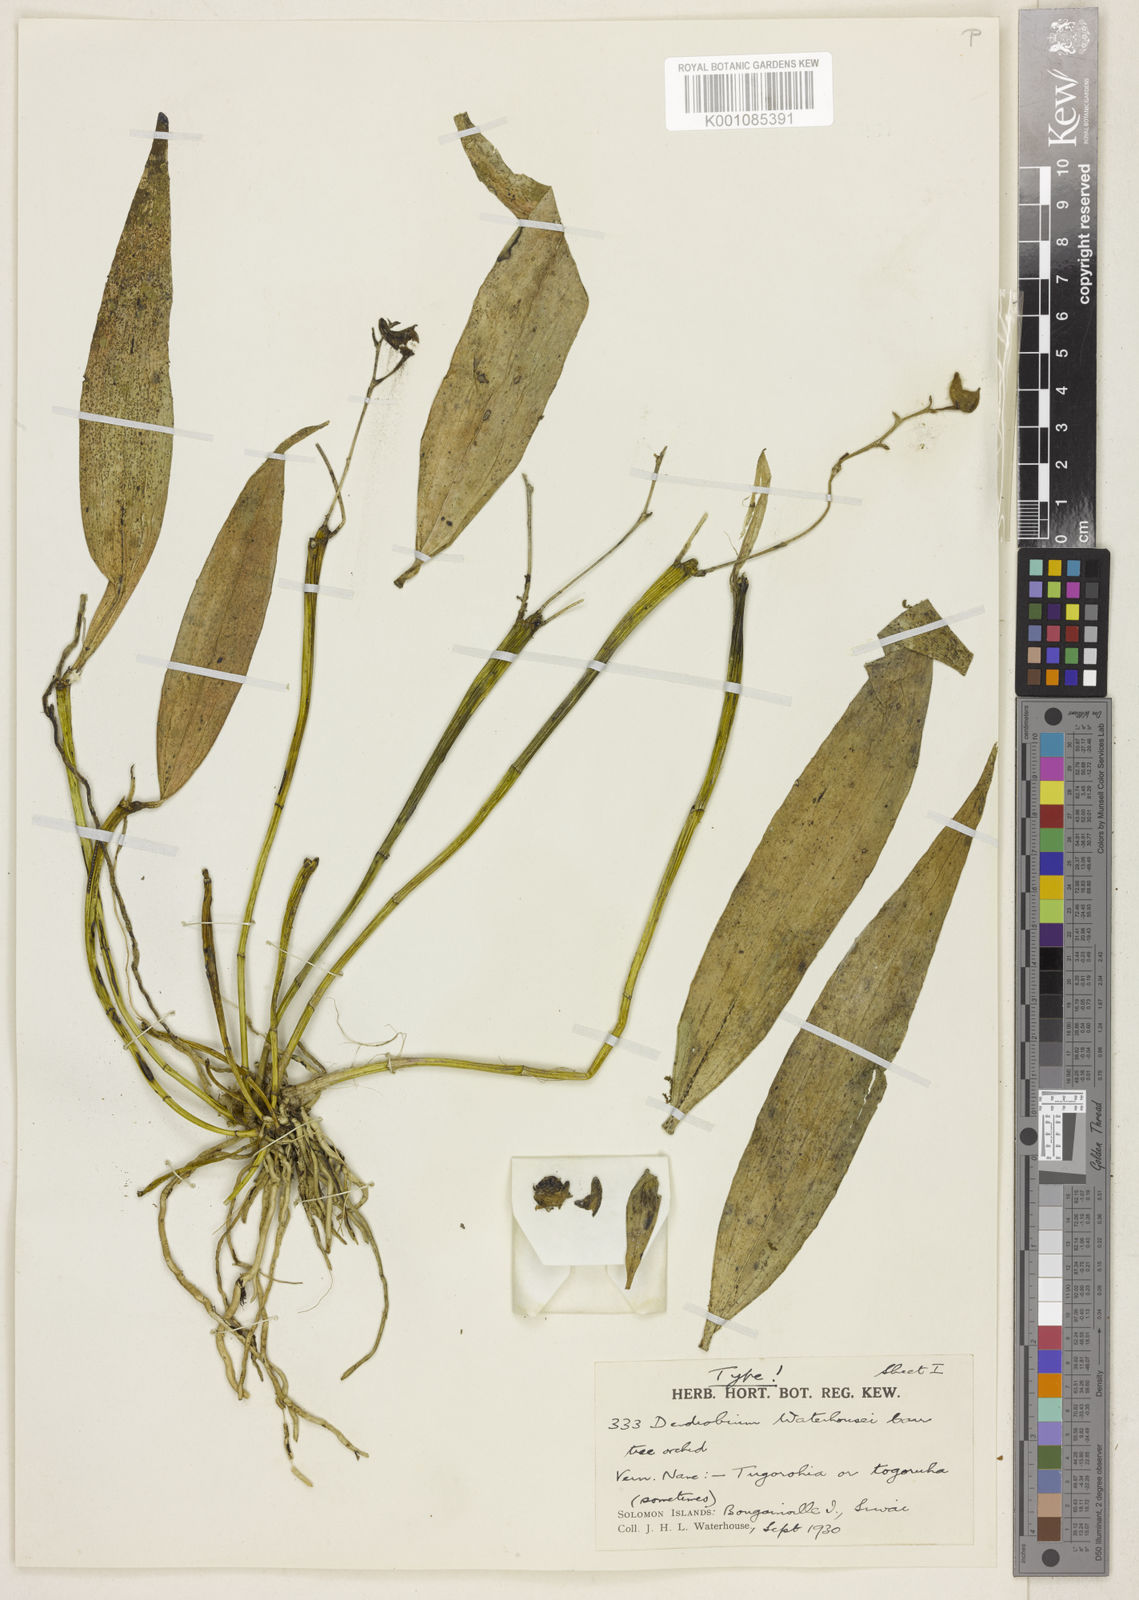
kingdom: Plantae
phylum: Tracheophyta
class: Liliopsida
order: Asparagales
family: Orchidaceae
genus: Dendrobium
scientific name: Dendrobium punamense
